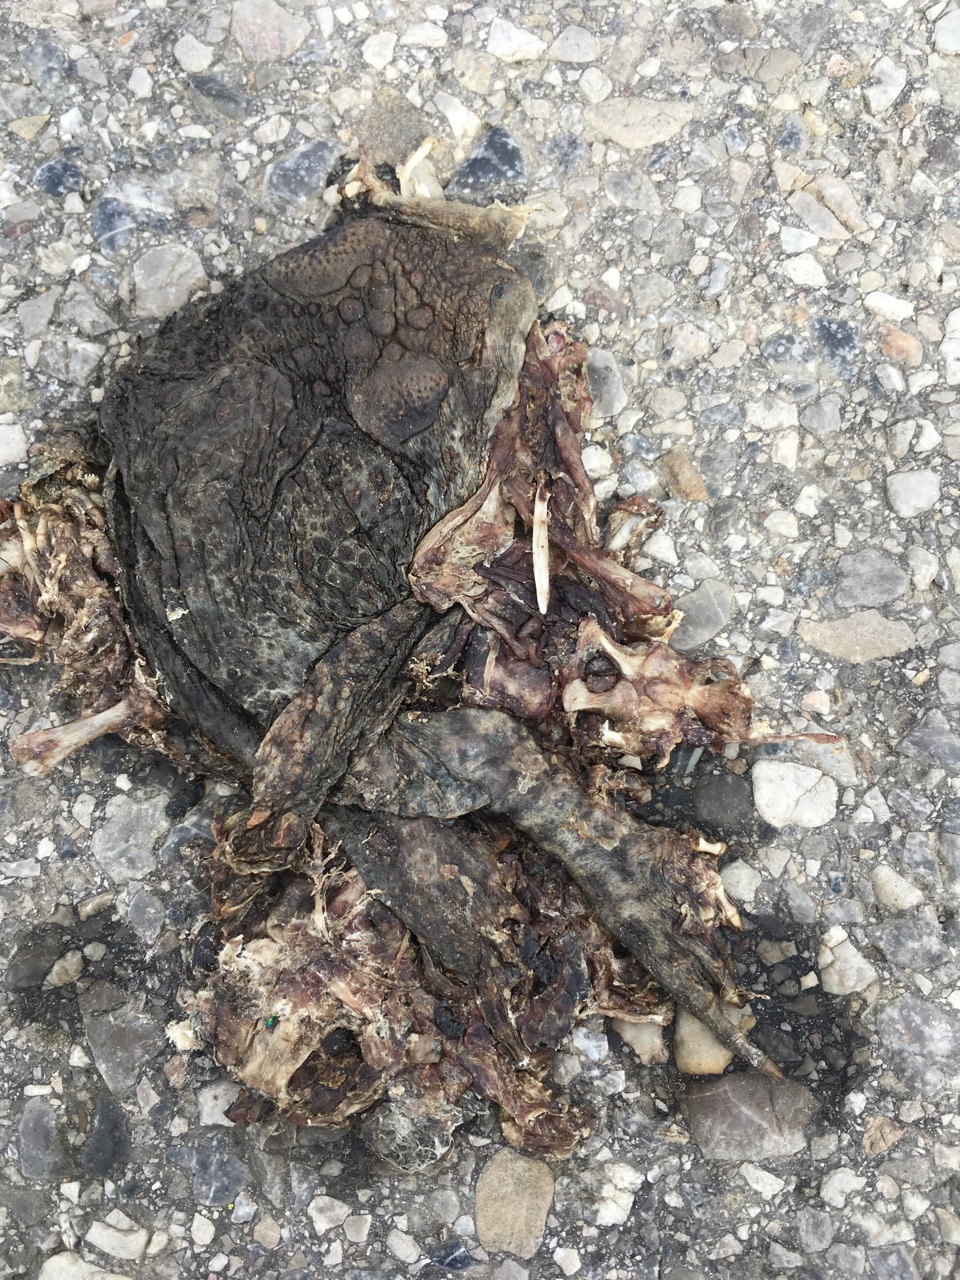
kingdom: Animalia
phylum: Chordata
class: Amphibia
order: Anura
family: Bufonidae
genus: Bufo
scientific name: Bufo bufo
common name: Common toad
